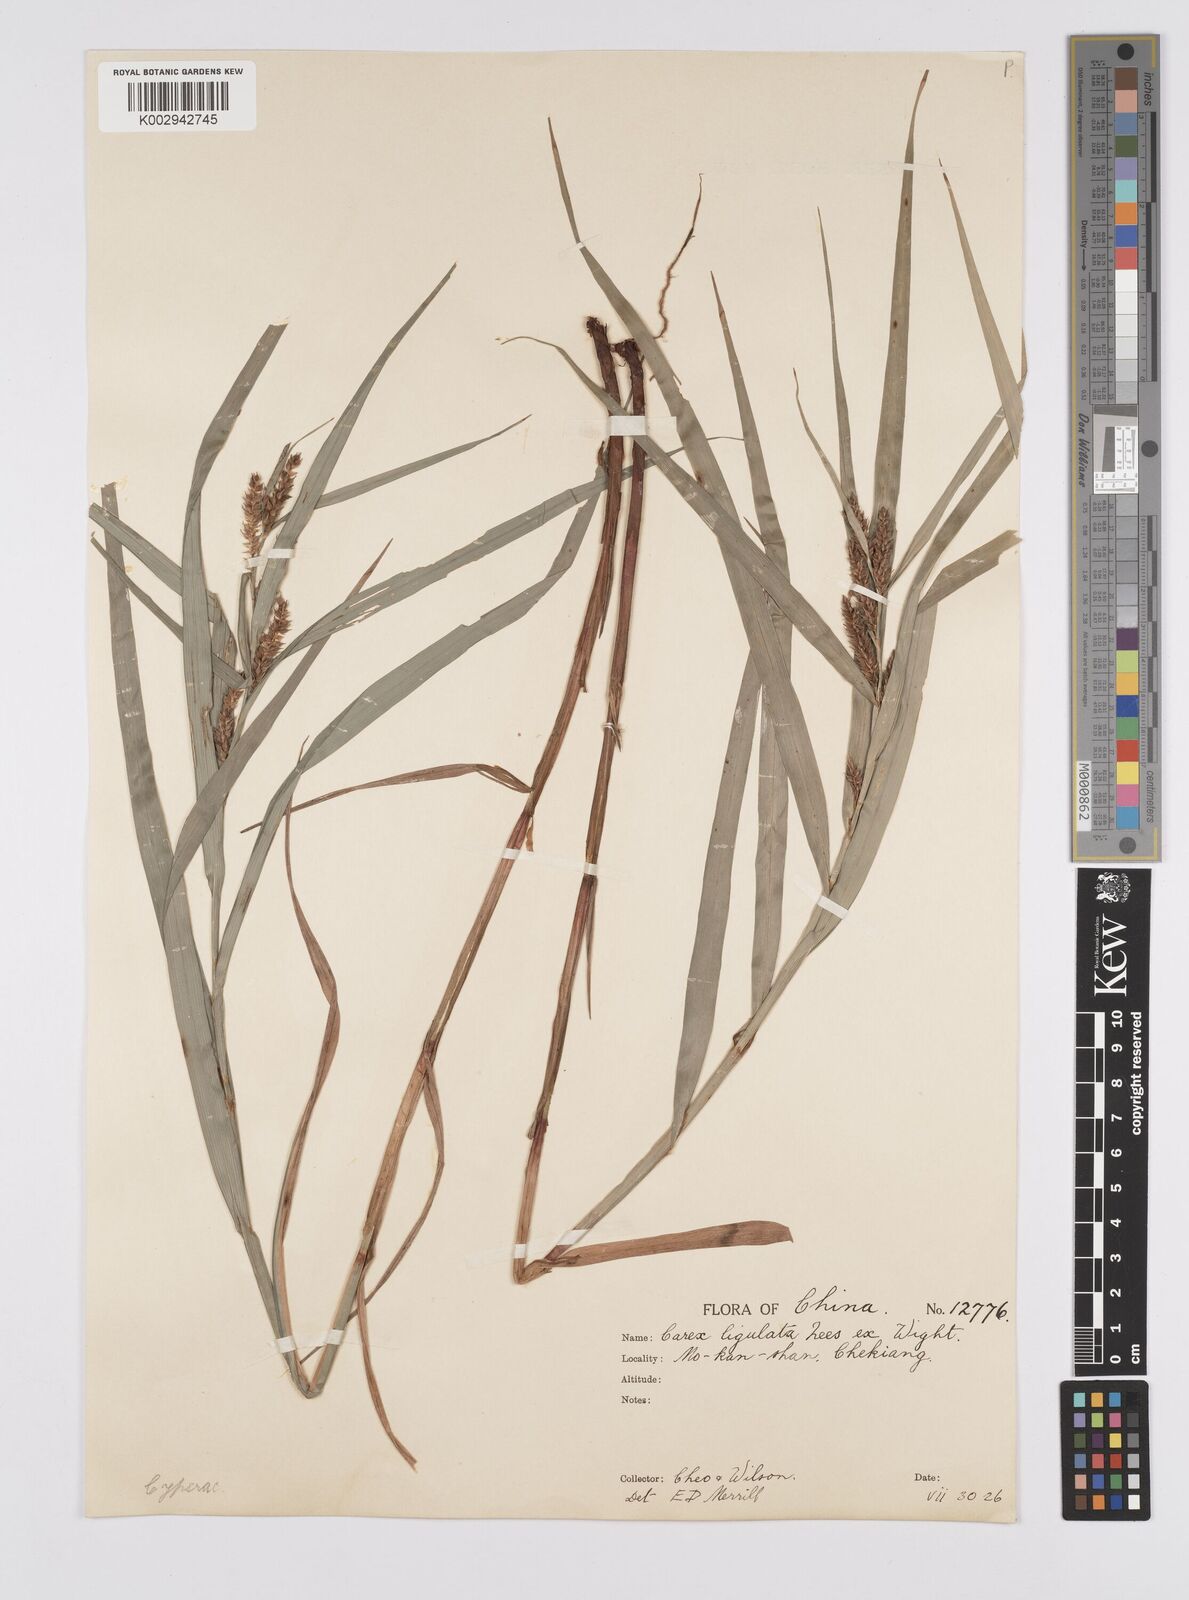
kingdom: Plantae
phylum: Tracheophyta
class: Liliopsida
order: Poales
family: Cyperaceae
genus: Carex
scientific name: Carex ligulata
